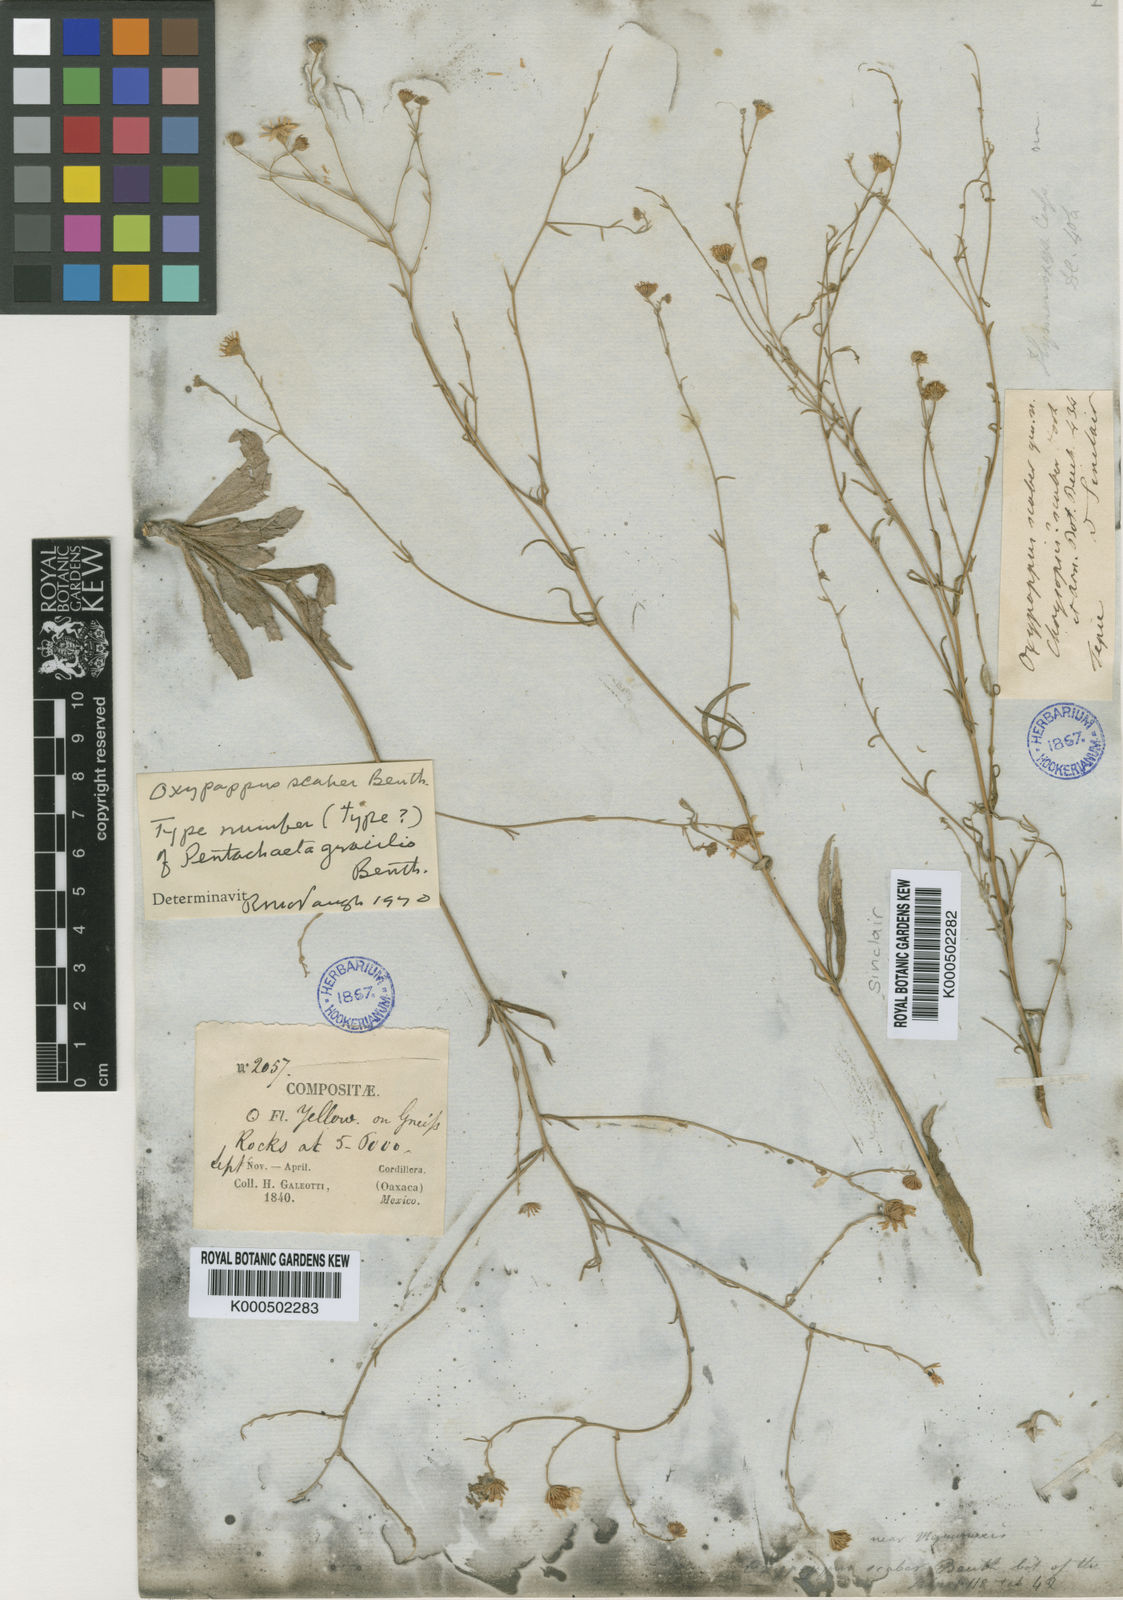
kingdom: Plantae
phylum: Tracheophyta
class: Magnoliopsida
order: Asterales
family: Asteraceae
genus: Oxypappus
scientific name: Oxypappus scaber
